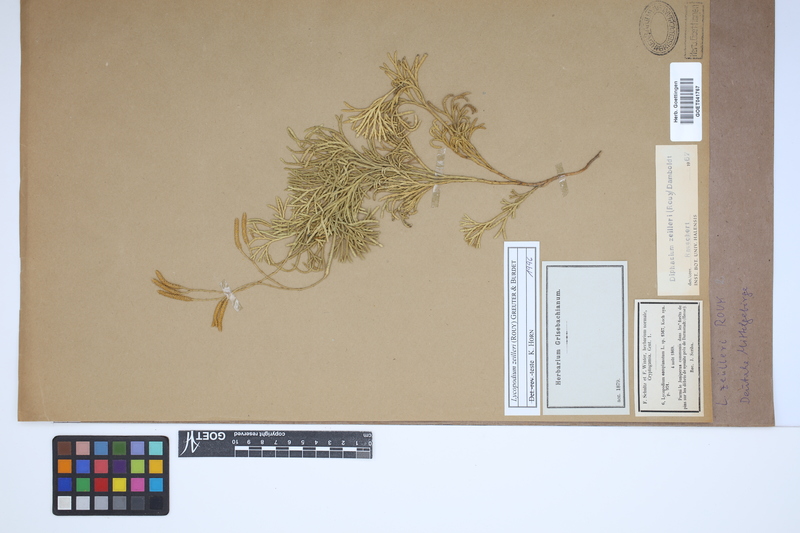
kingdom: Plantae
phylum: Tracheophyta
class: Lycopodiopsida
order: Lycopodiales
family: Lycopodiaceae
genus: Diphasiastrum
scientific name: Diphasiastrum zeilleri
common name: Zeiller's clubmoss
